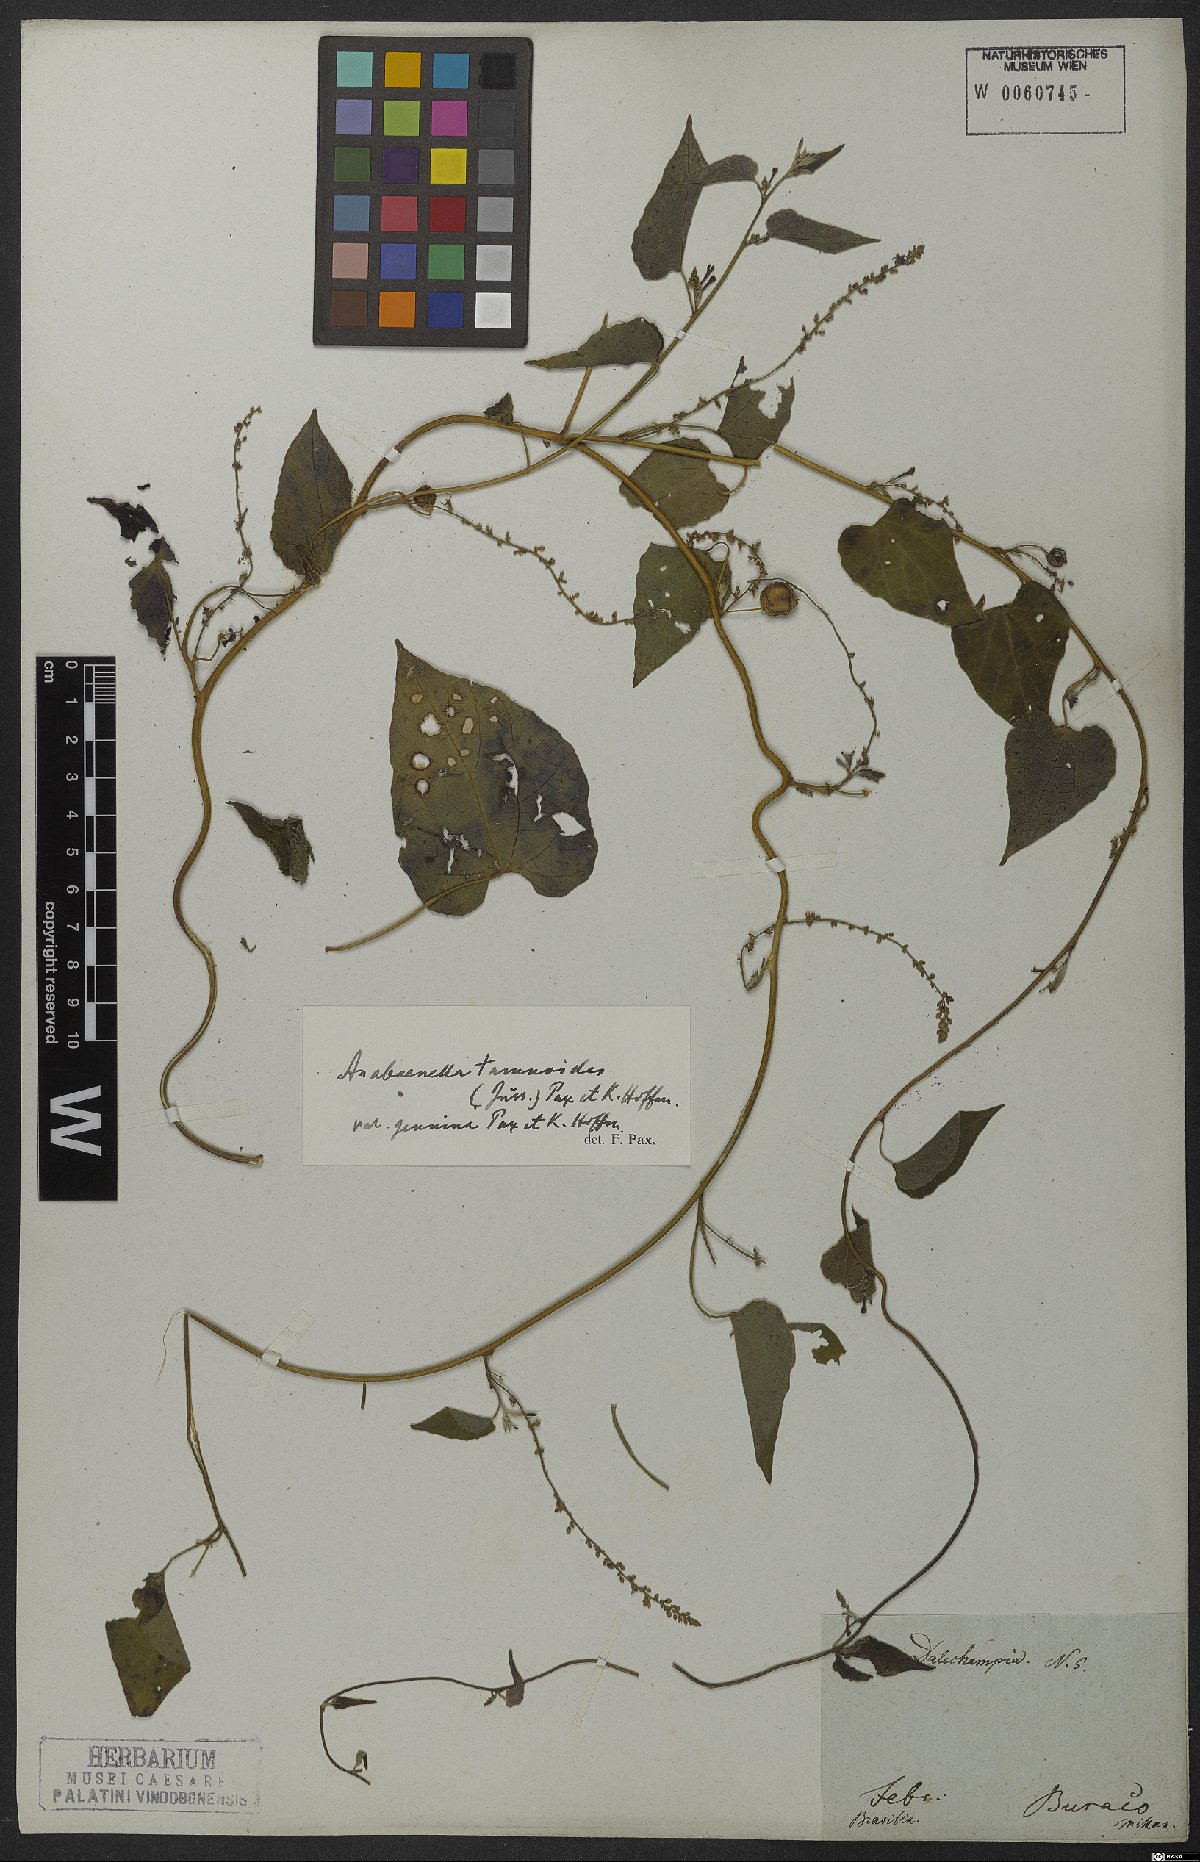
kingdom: Plantae
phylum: Tracheophyta
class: Magnoliopsida
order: Malpighiales
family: Euphorbiaceae
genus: Romanoa
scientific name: Romanoa tamnoides
